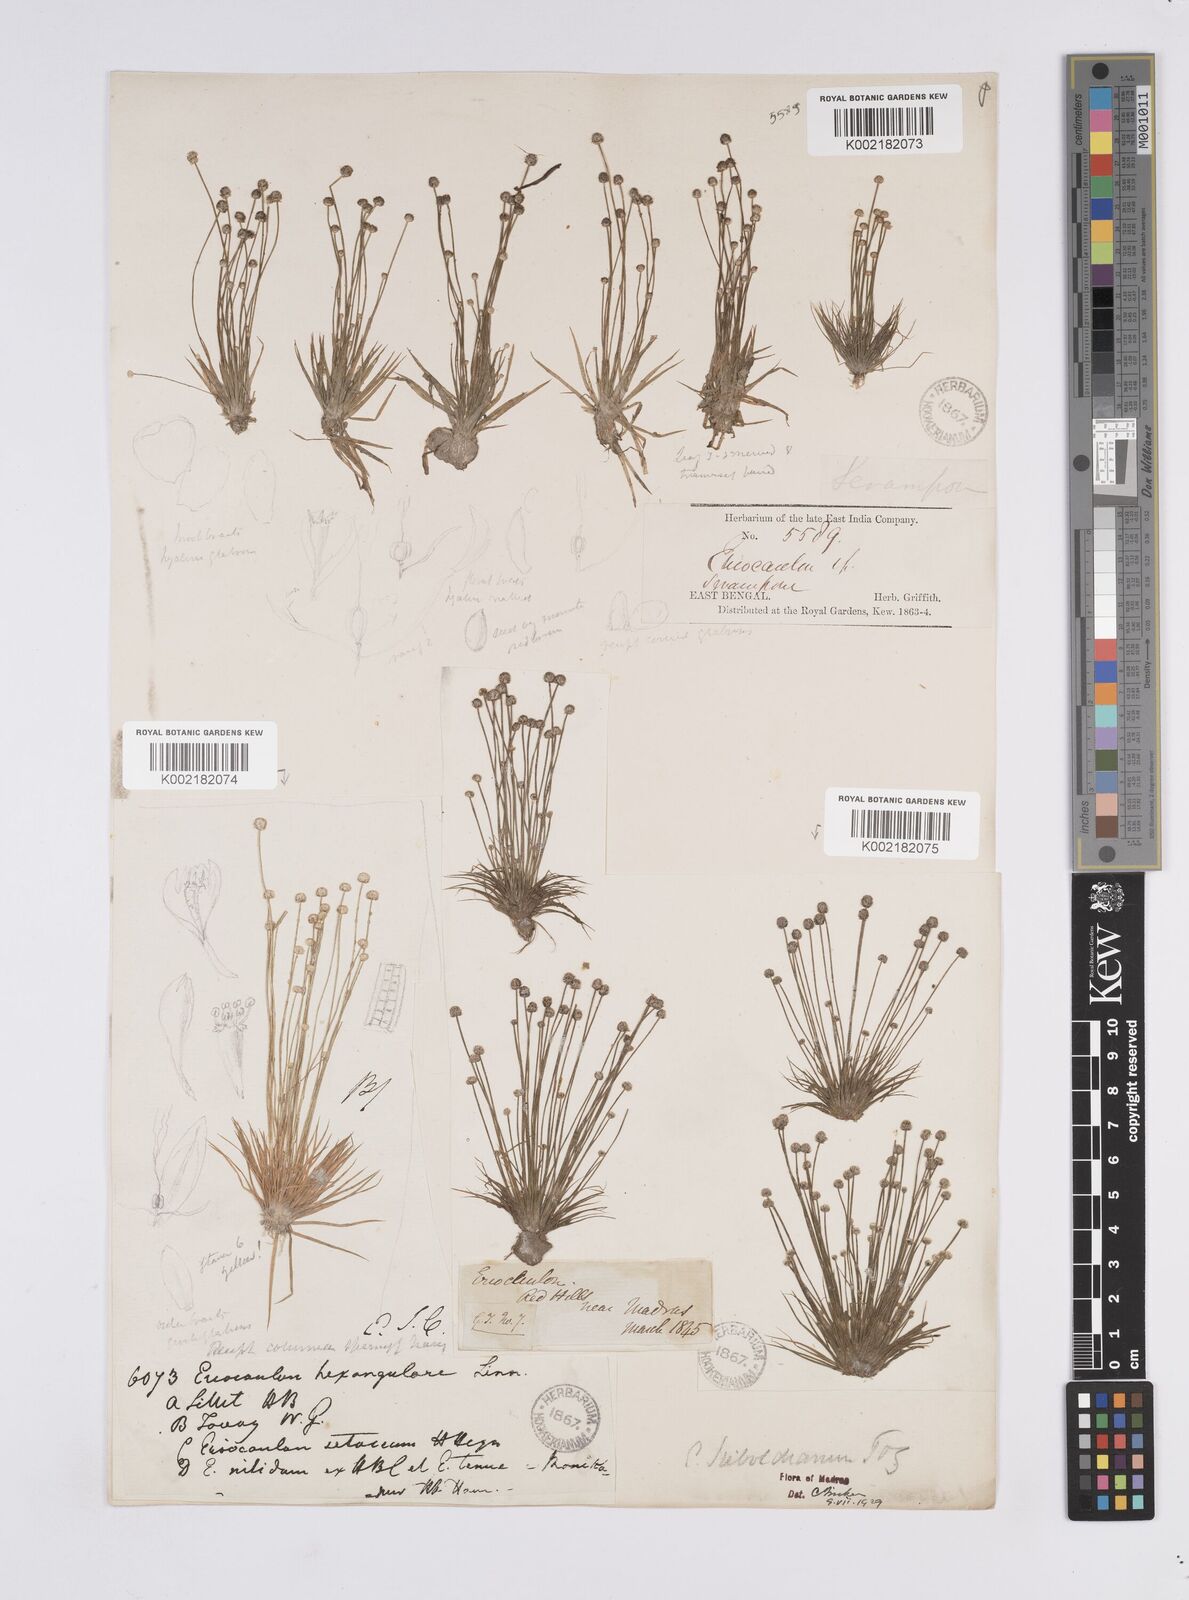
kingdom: Plantae
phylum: Tracheophyta
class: Liliopsida
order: Poales
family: Eriocaulaceae
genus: Eriocaulon
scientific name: Eriocaulon cinereum
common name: Ashy pipewort
